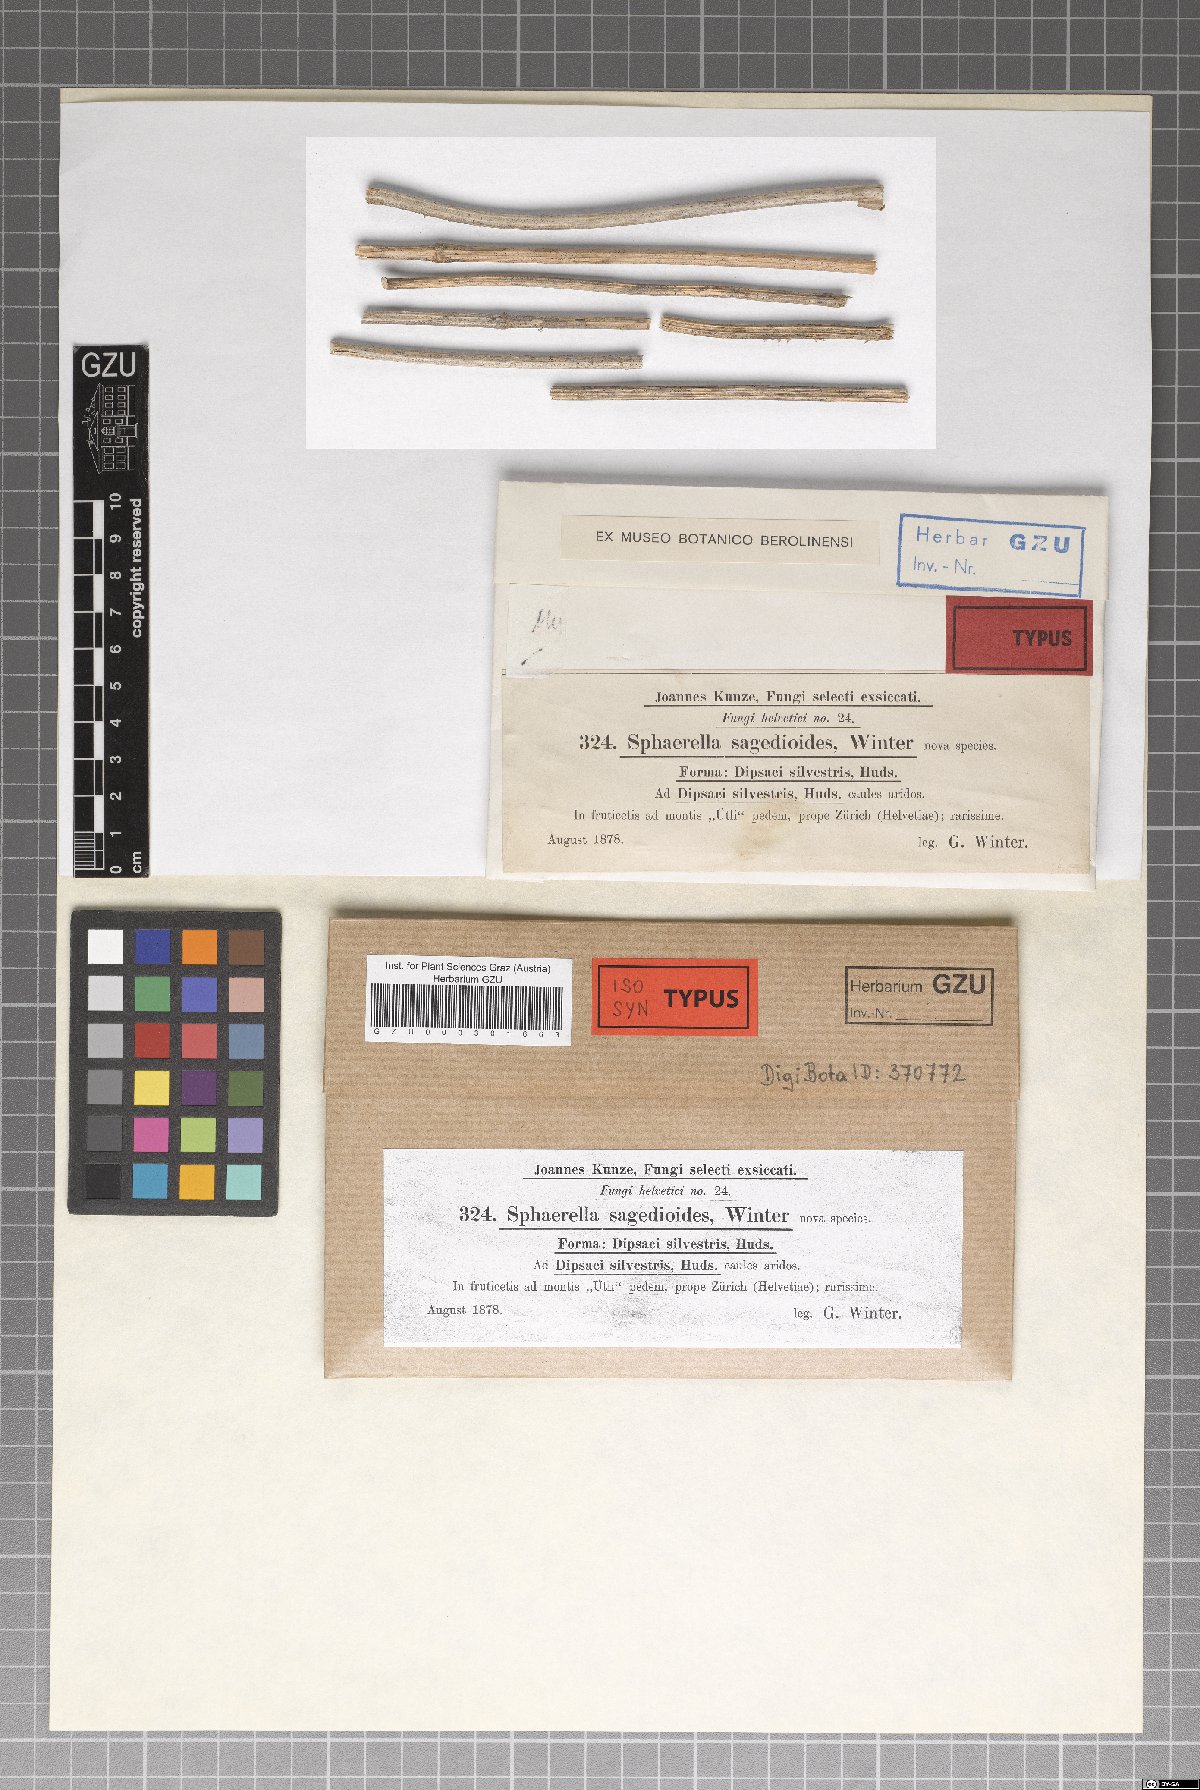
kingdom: Fungi
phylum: Ascomycota
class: Dothideomycetes
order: Mycosphaerellales
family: Mycosphaerellaceae
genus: Mycosphaerella
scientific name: Mycosphaerella sagedioides
